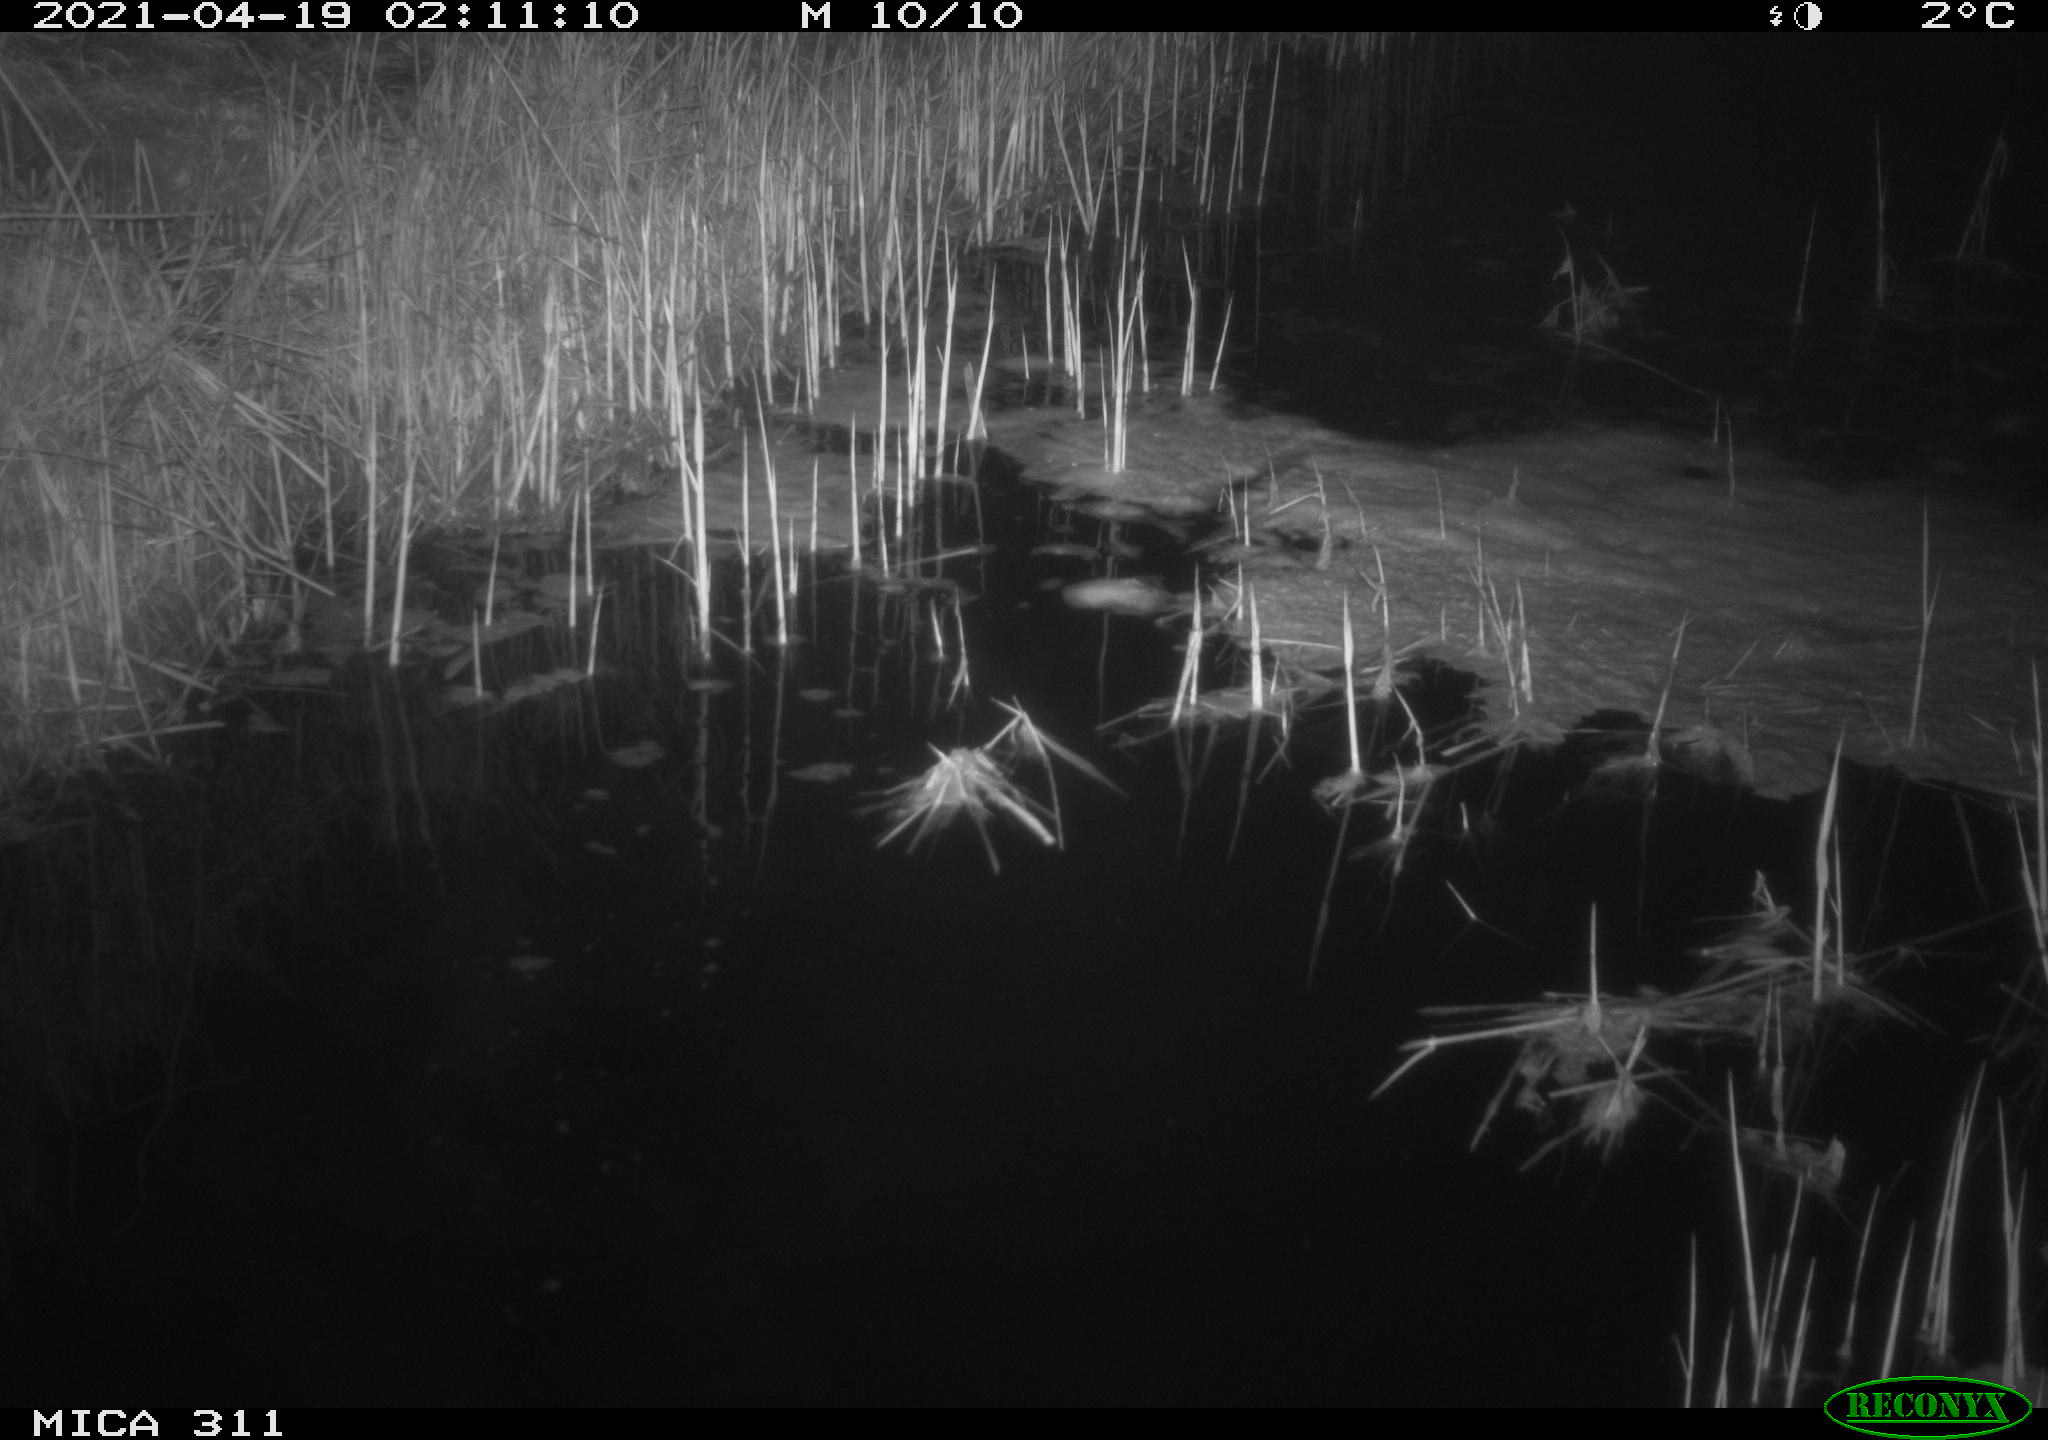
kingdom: Animalia
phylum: Chordata
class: Mammalia
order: Rodentia
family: Cricetidae
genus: Ondatra
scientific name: Ondatra zibethicus
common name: Muskrat
